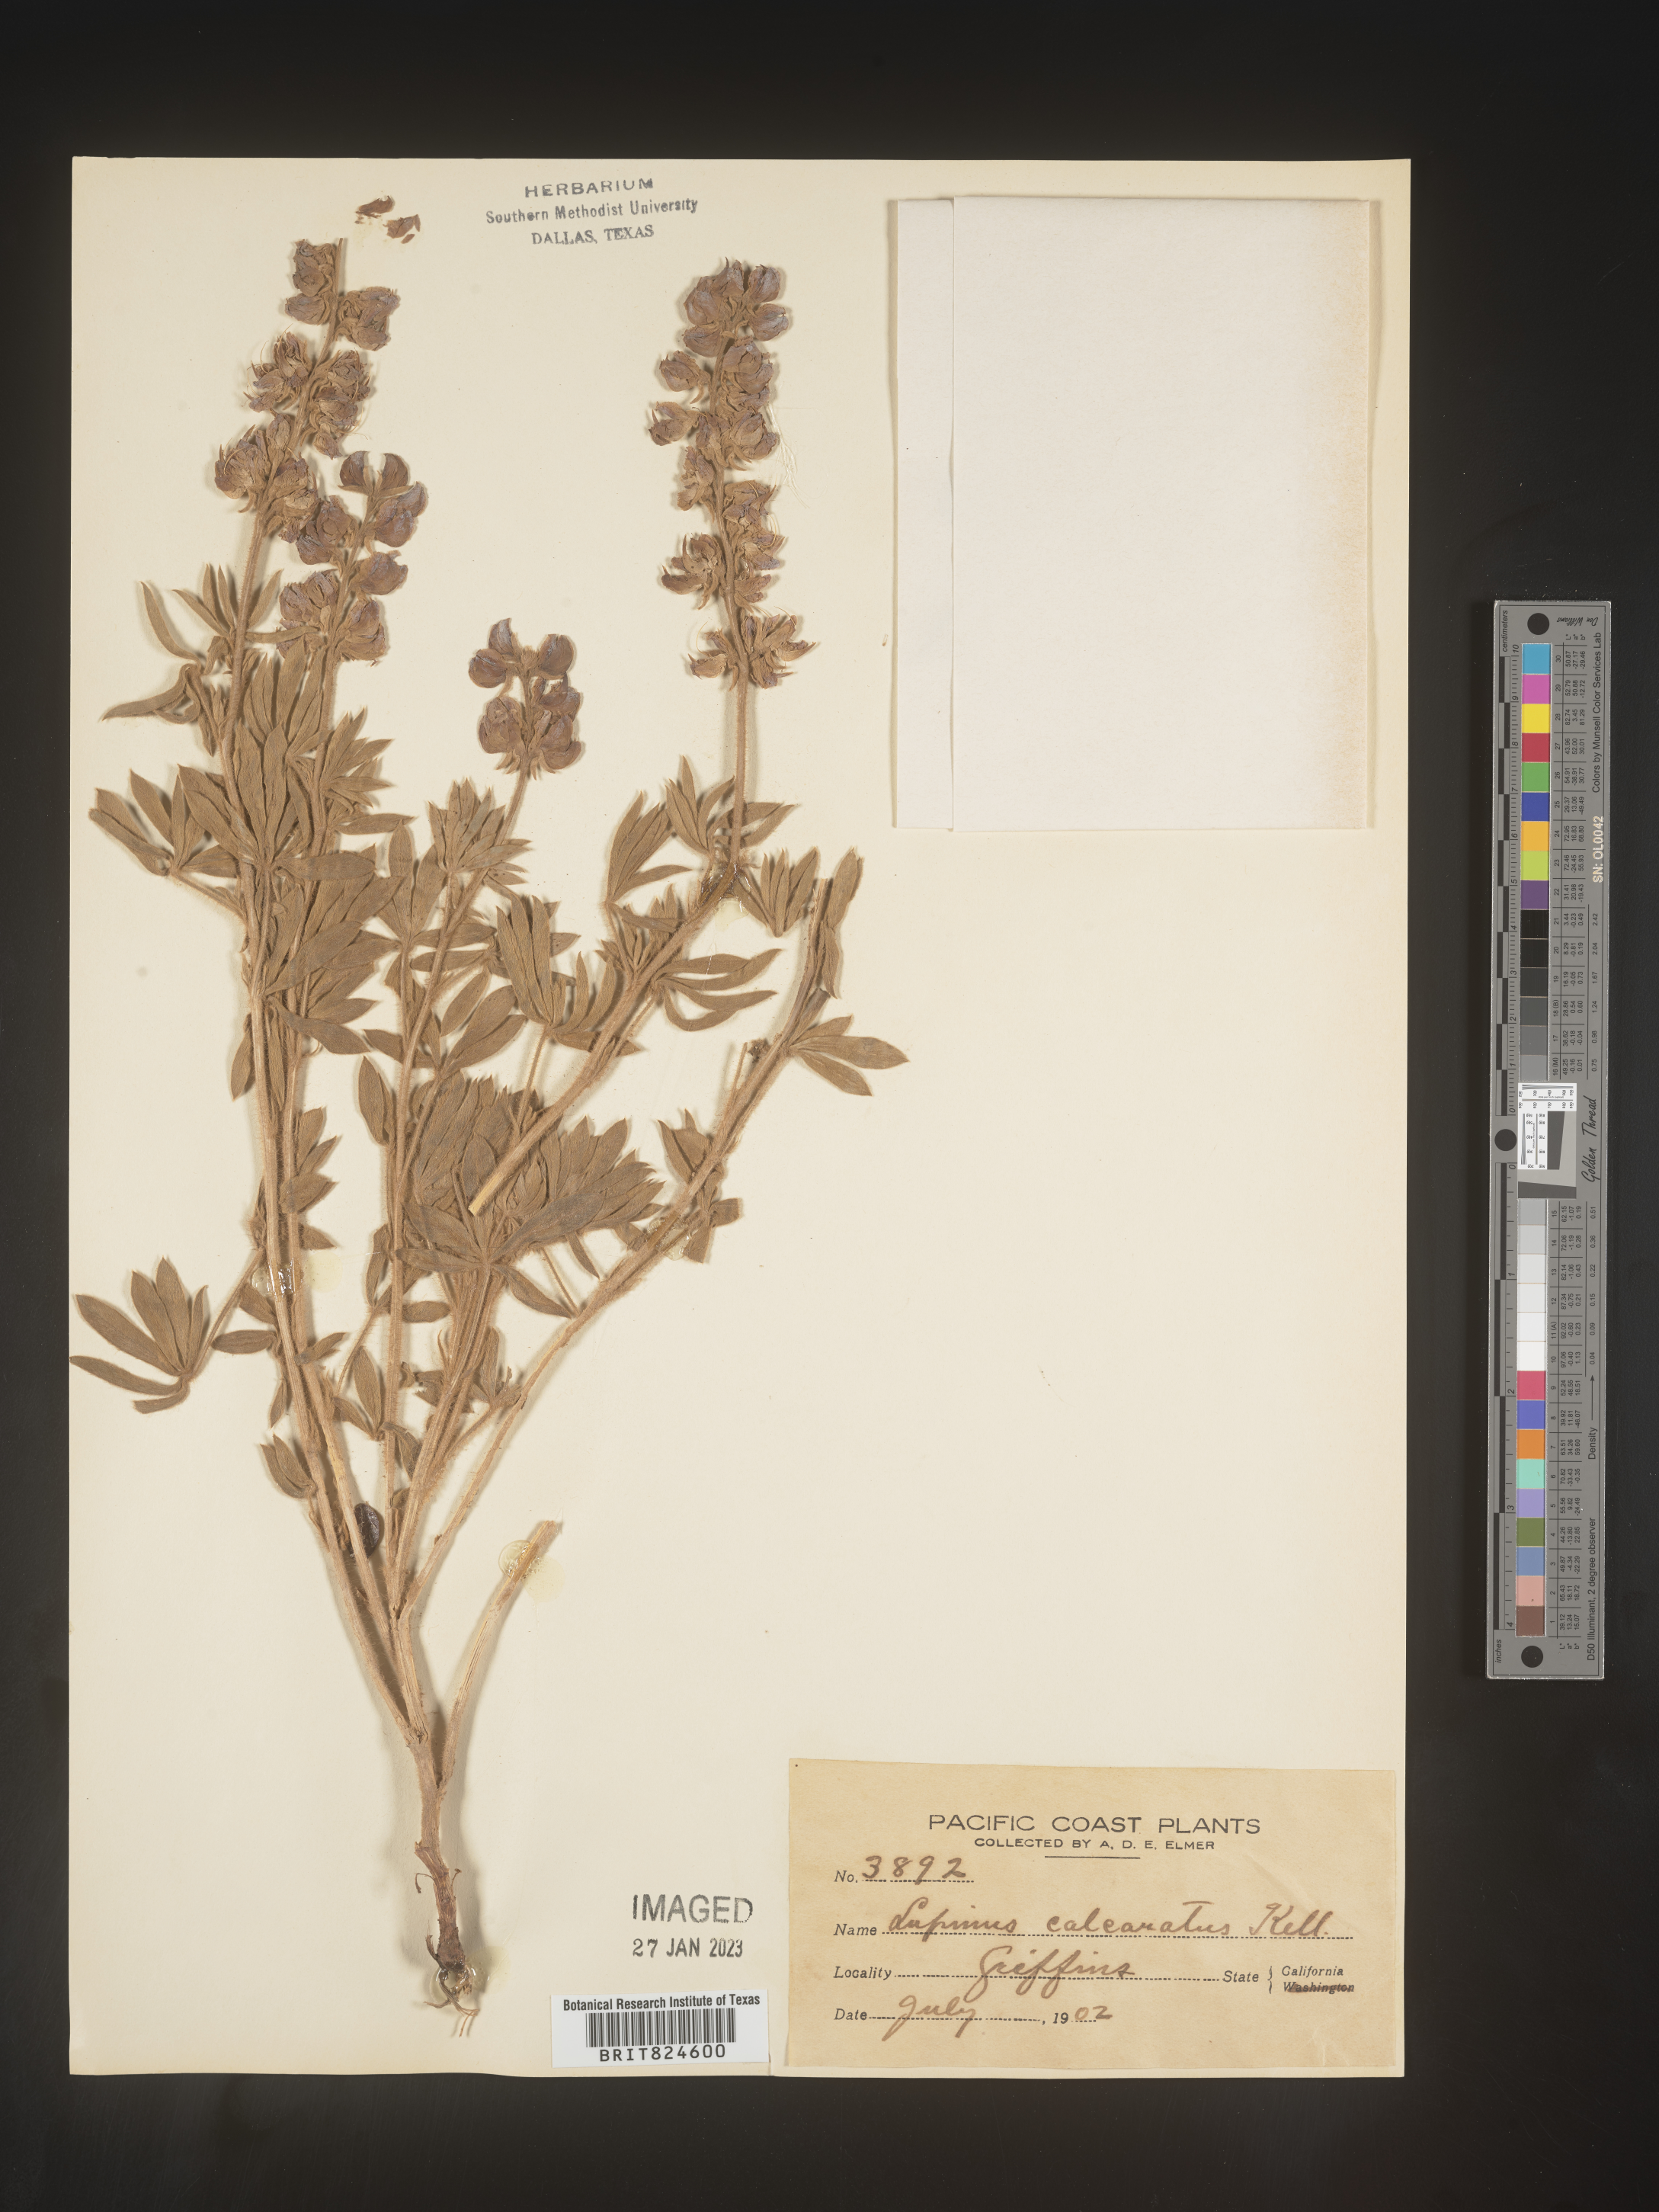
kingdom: Plantae
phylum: Tracheophyta
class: Magnoliopsida
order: Fabales
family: Fabaceae
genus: Lupinus
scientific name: Lupinus arbustus
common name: Montana lupine
